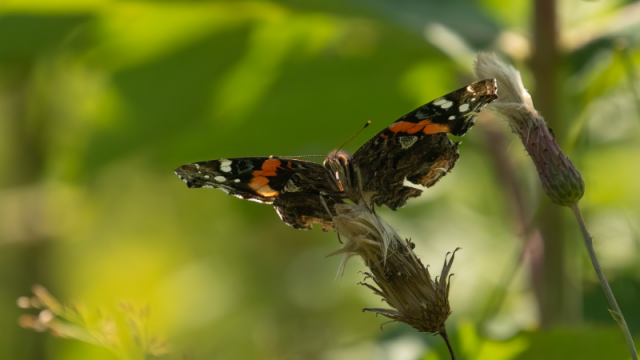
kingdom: Animalia
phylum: Arthropoda
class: Insecta
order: Lepidoptera
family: Nymphalidae
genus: Vanessa
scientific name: Vanessa atalanta
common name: Red Admiral
